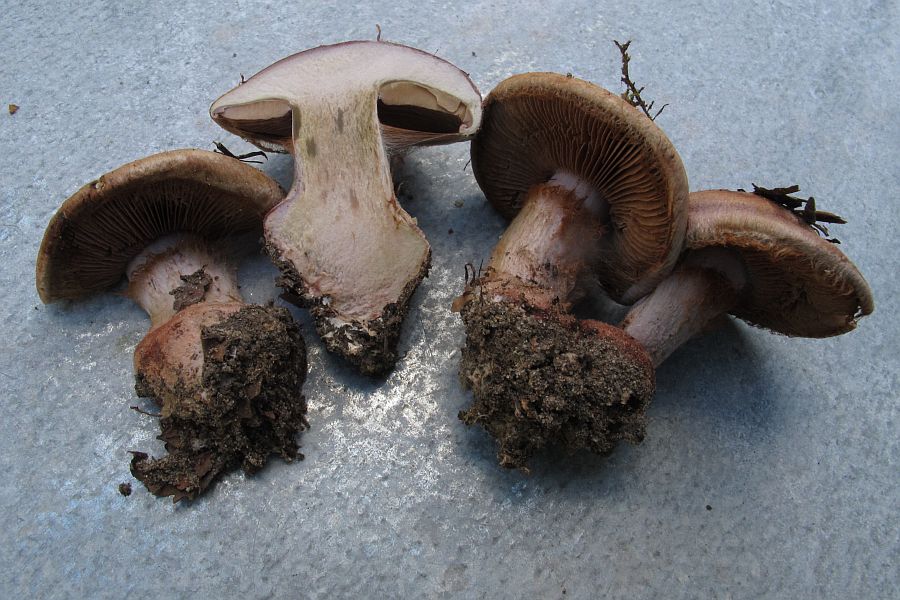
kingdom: Fungi
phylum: Basidiomycota
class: Agaricomycetes
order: Agaricales
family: Cortinariaceae
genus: Calonarius
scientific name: Calonarius rufo-olivaceus
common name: firefarvet slørhat
